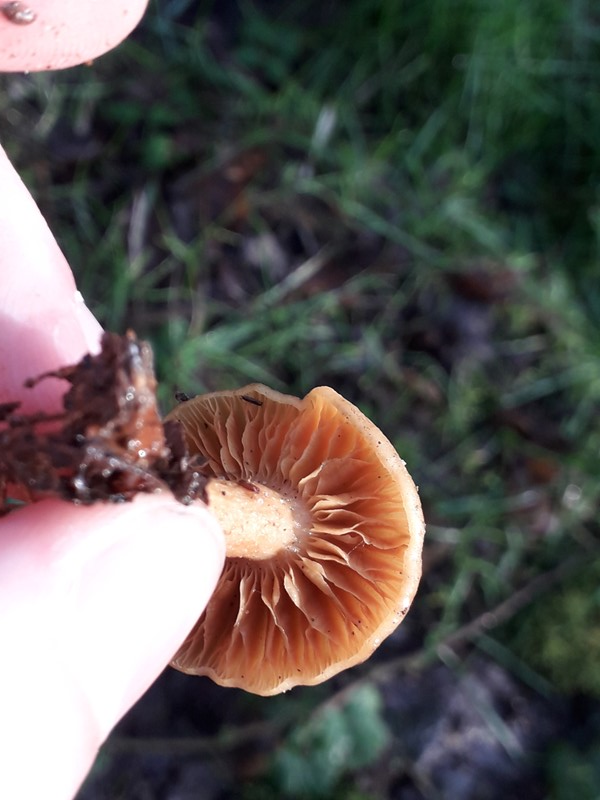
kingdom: Fungi
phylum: Basidiomycota
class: Agaricomycetes
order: Agaricales
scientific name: Agaricales
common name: champignonordenen
